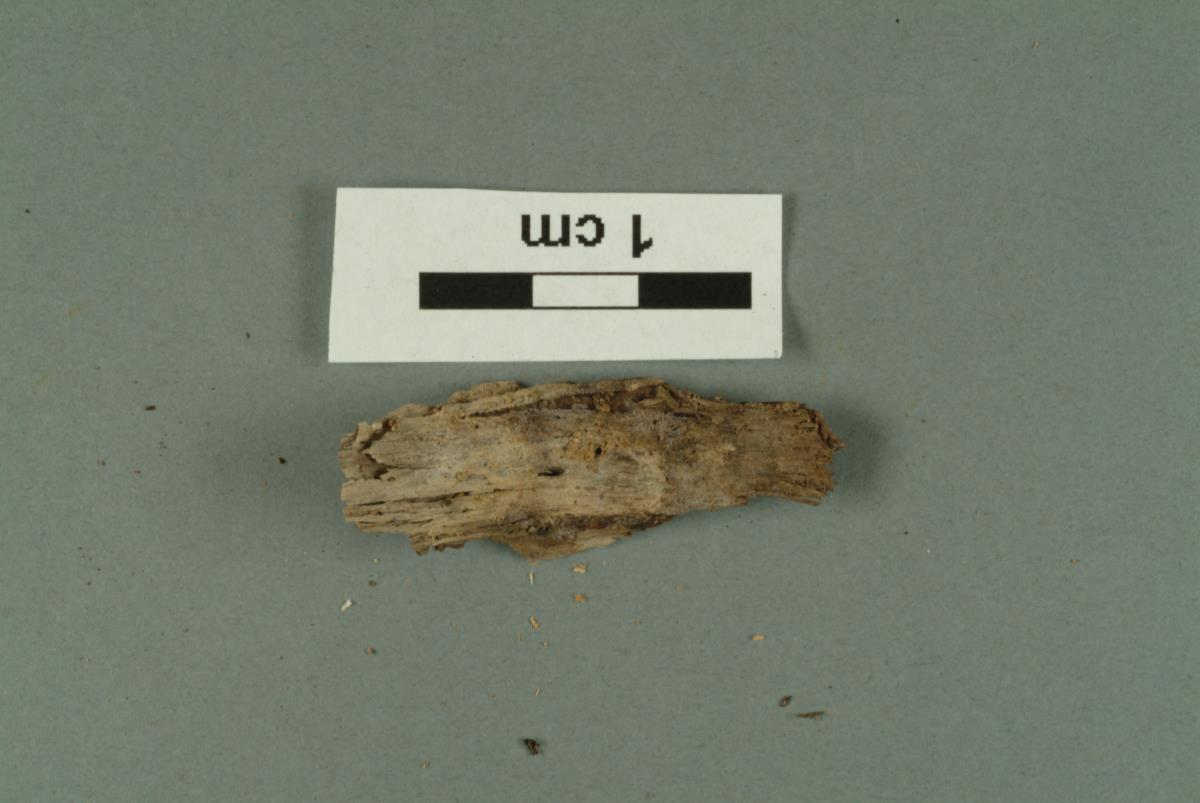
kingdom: Fungi
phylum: Basidiomycota
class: Agaricomycetes
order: Agaricales
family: Agaricaceae
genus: Coprinus
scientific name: Coprinus
